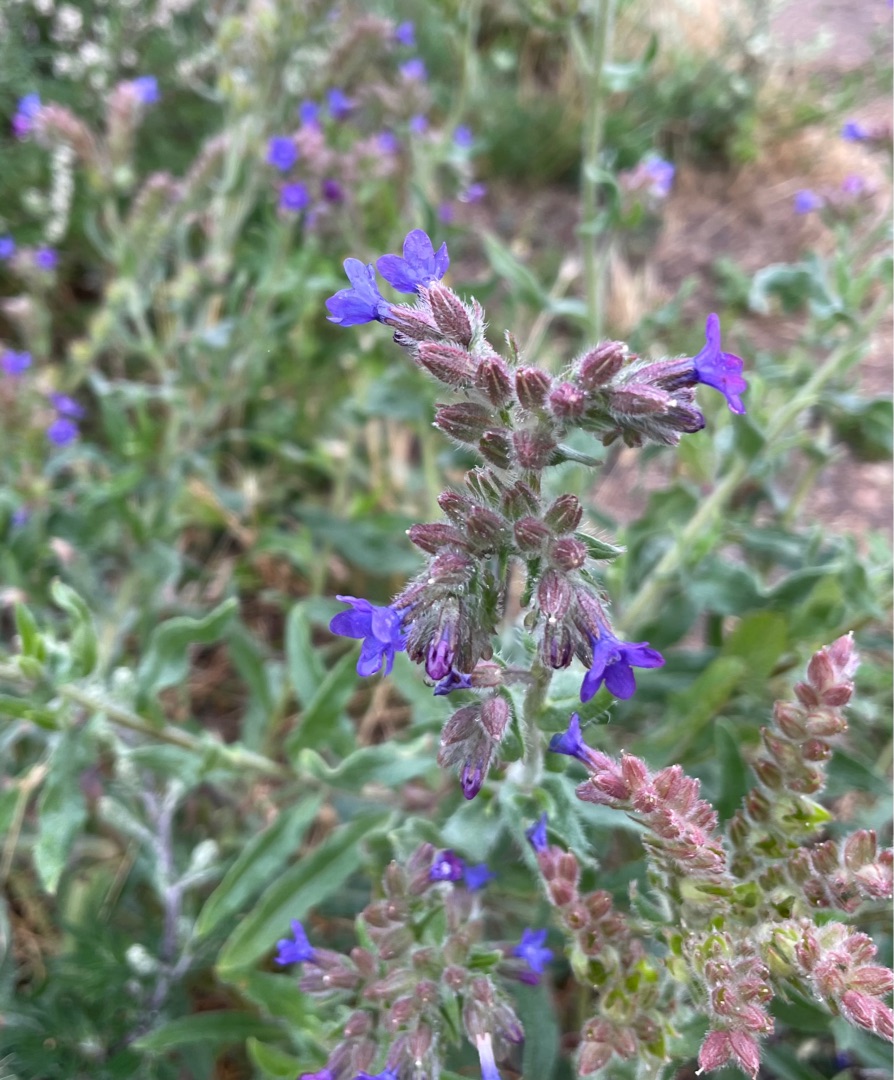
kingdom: Plantae
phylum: Tracheophyta
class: Magnoliopsida
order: Boraginales
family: Boraginaceae
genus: Anchusa
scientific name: Anchusa officinalis
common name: Læge-oksetunge
